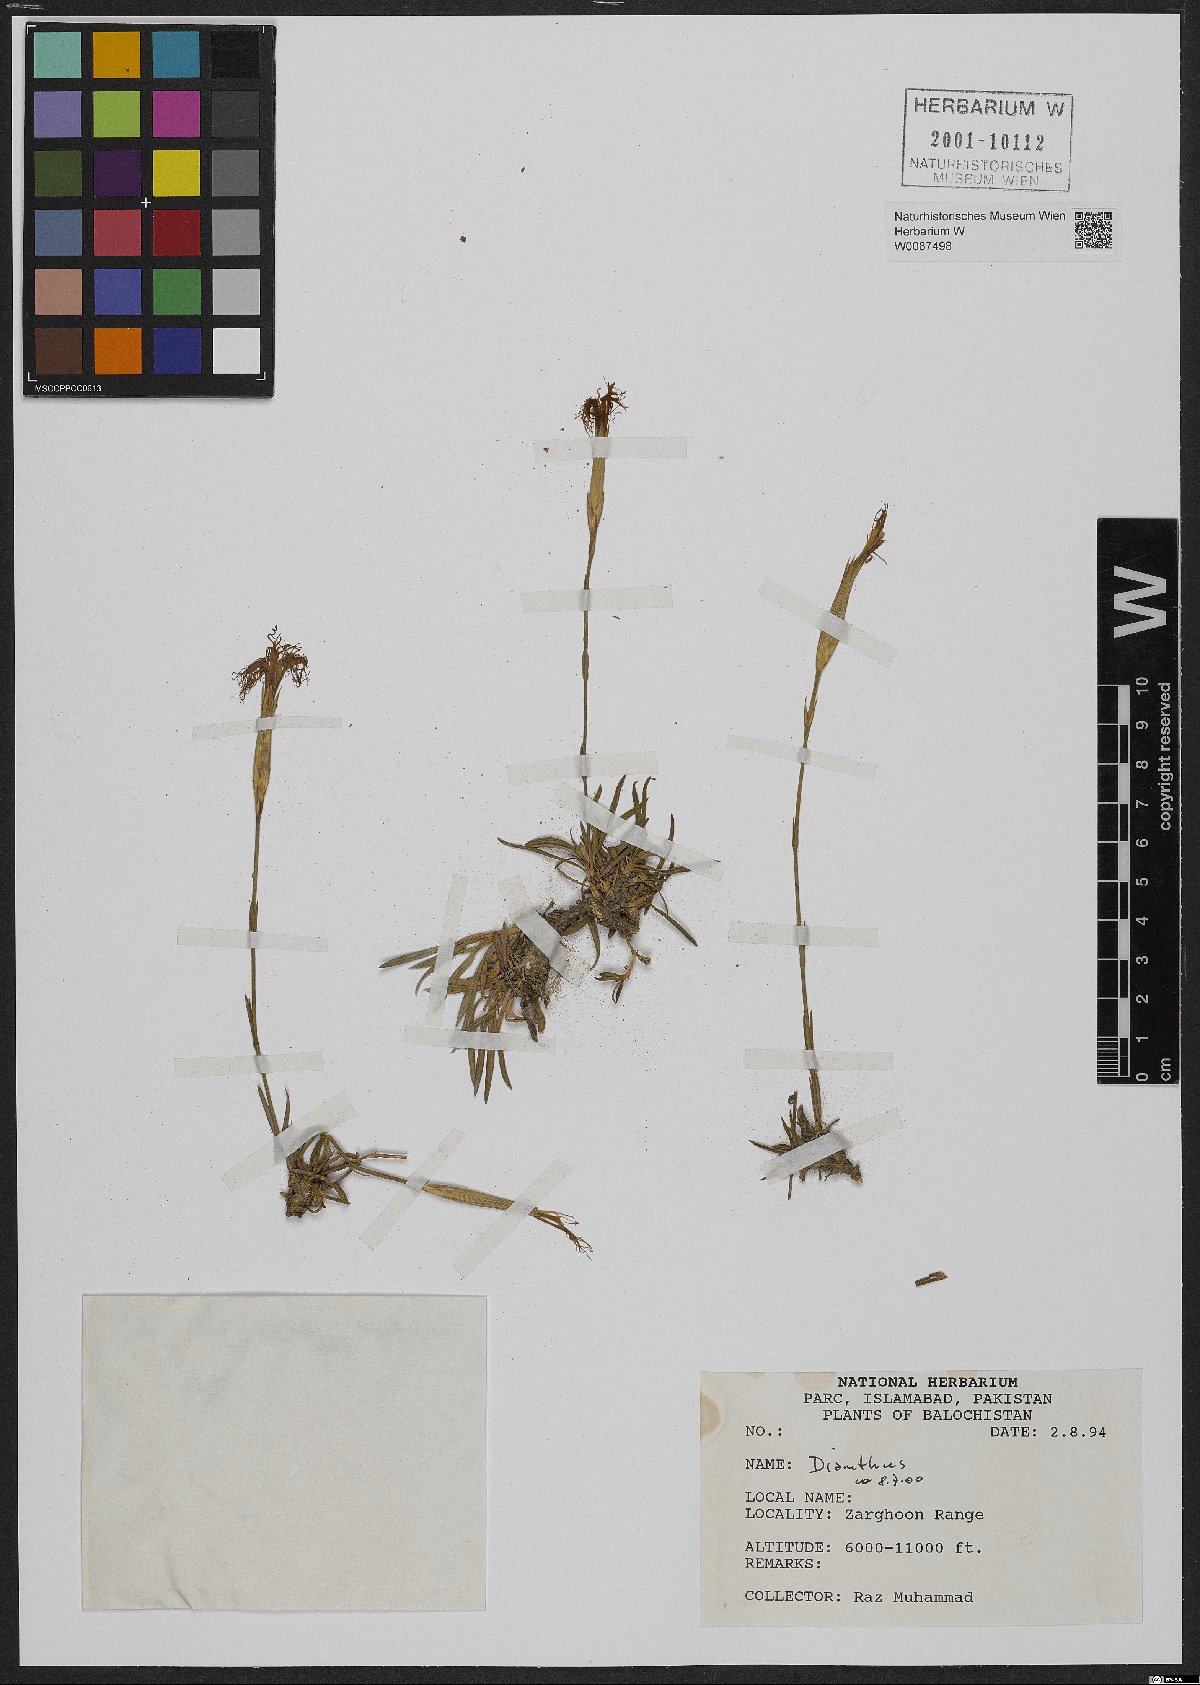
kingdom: Plantae
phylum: Tracheophyta
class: Magnoliopsida
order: Caryophyllales
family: Caryophyllaceae
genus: Dianthus
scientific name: Dianthus
